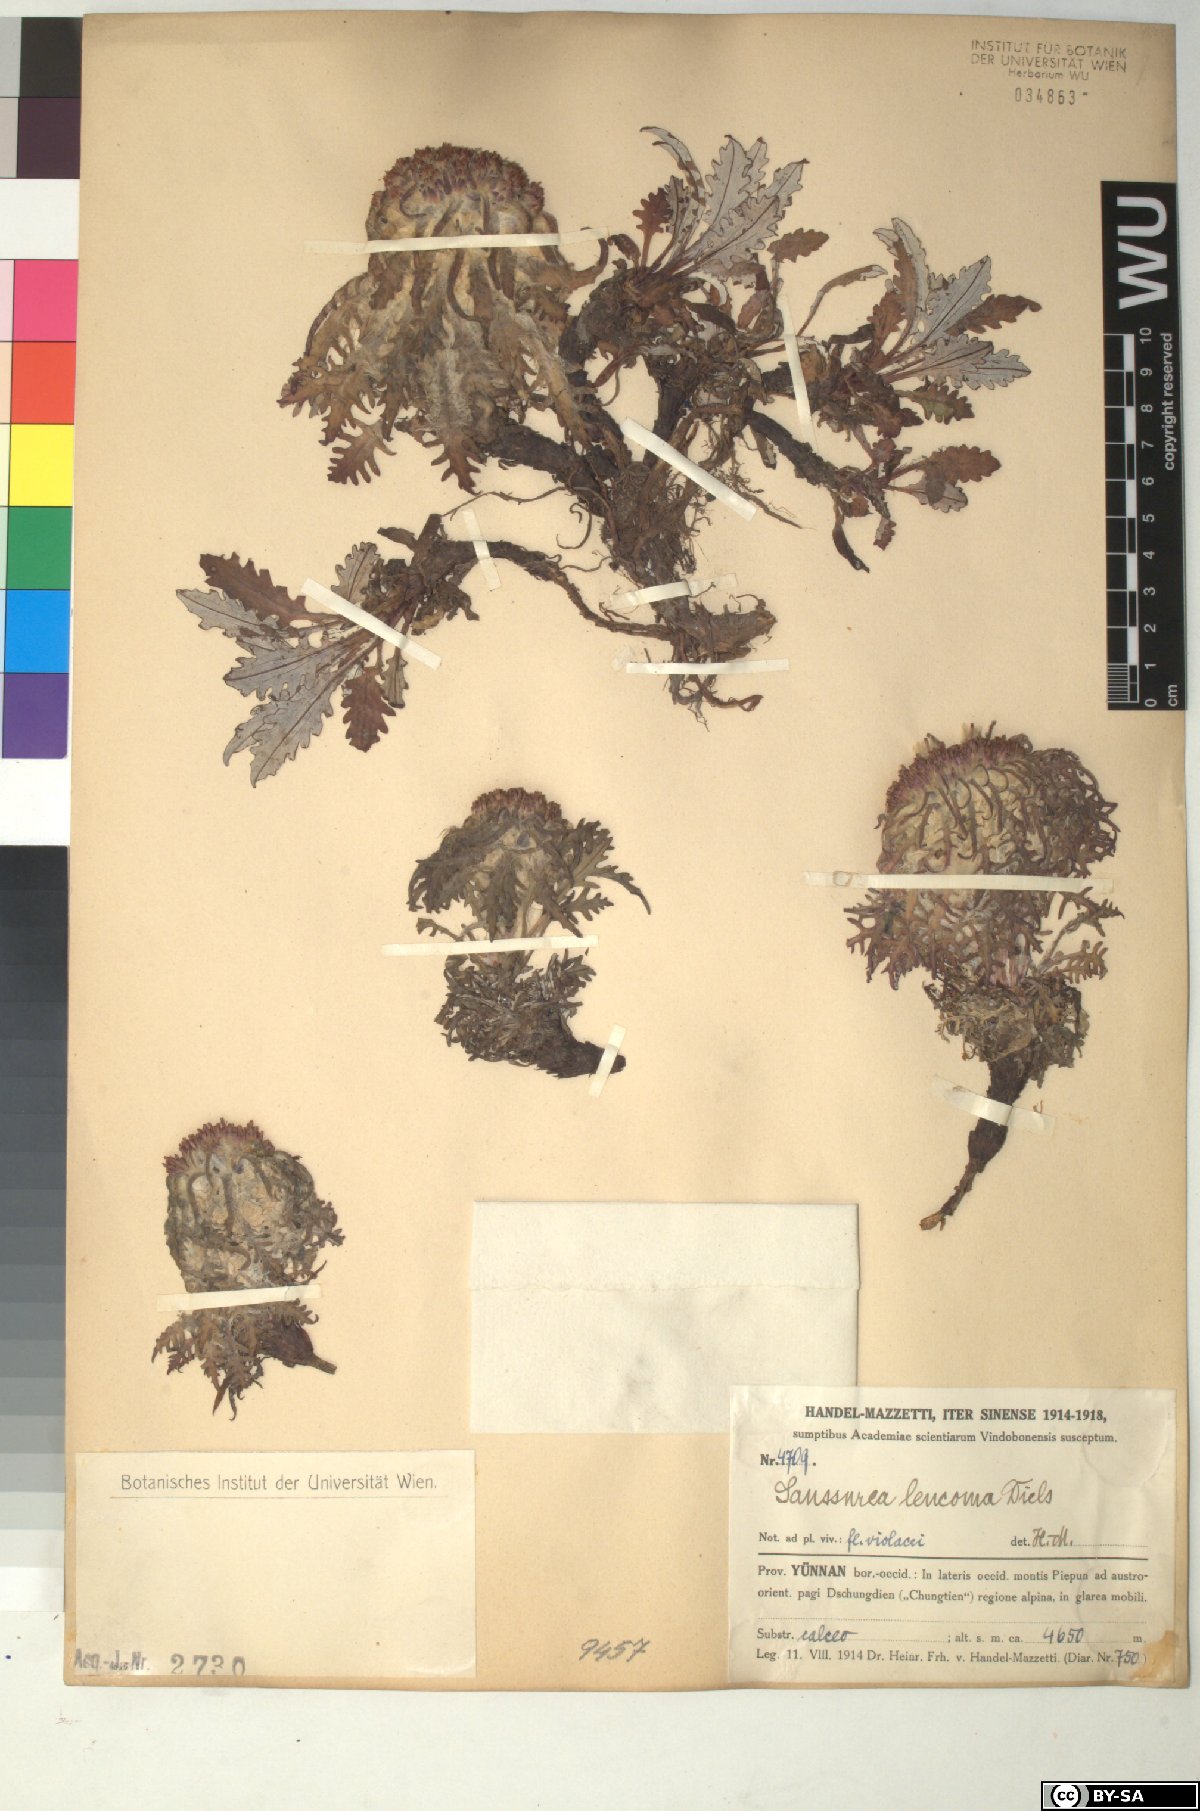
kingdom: Plantae
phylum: Tracheophyta
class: Magnoliopsida
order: Asterales
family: Asteraceae
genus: Saussurea
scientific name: Saussurea leucoma
